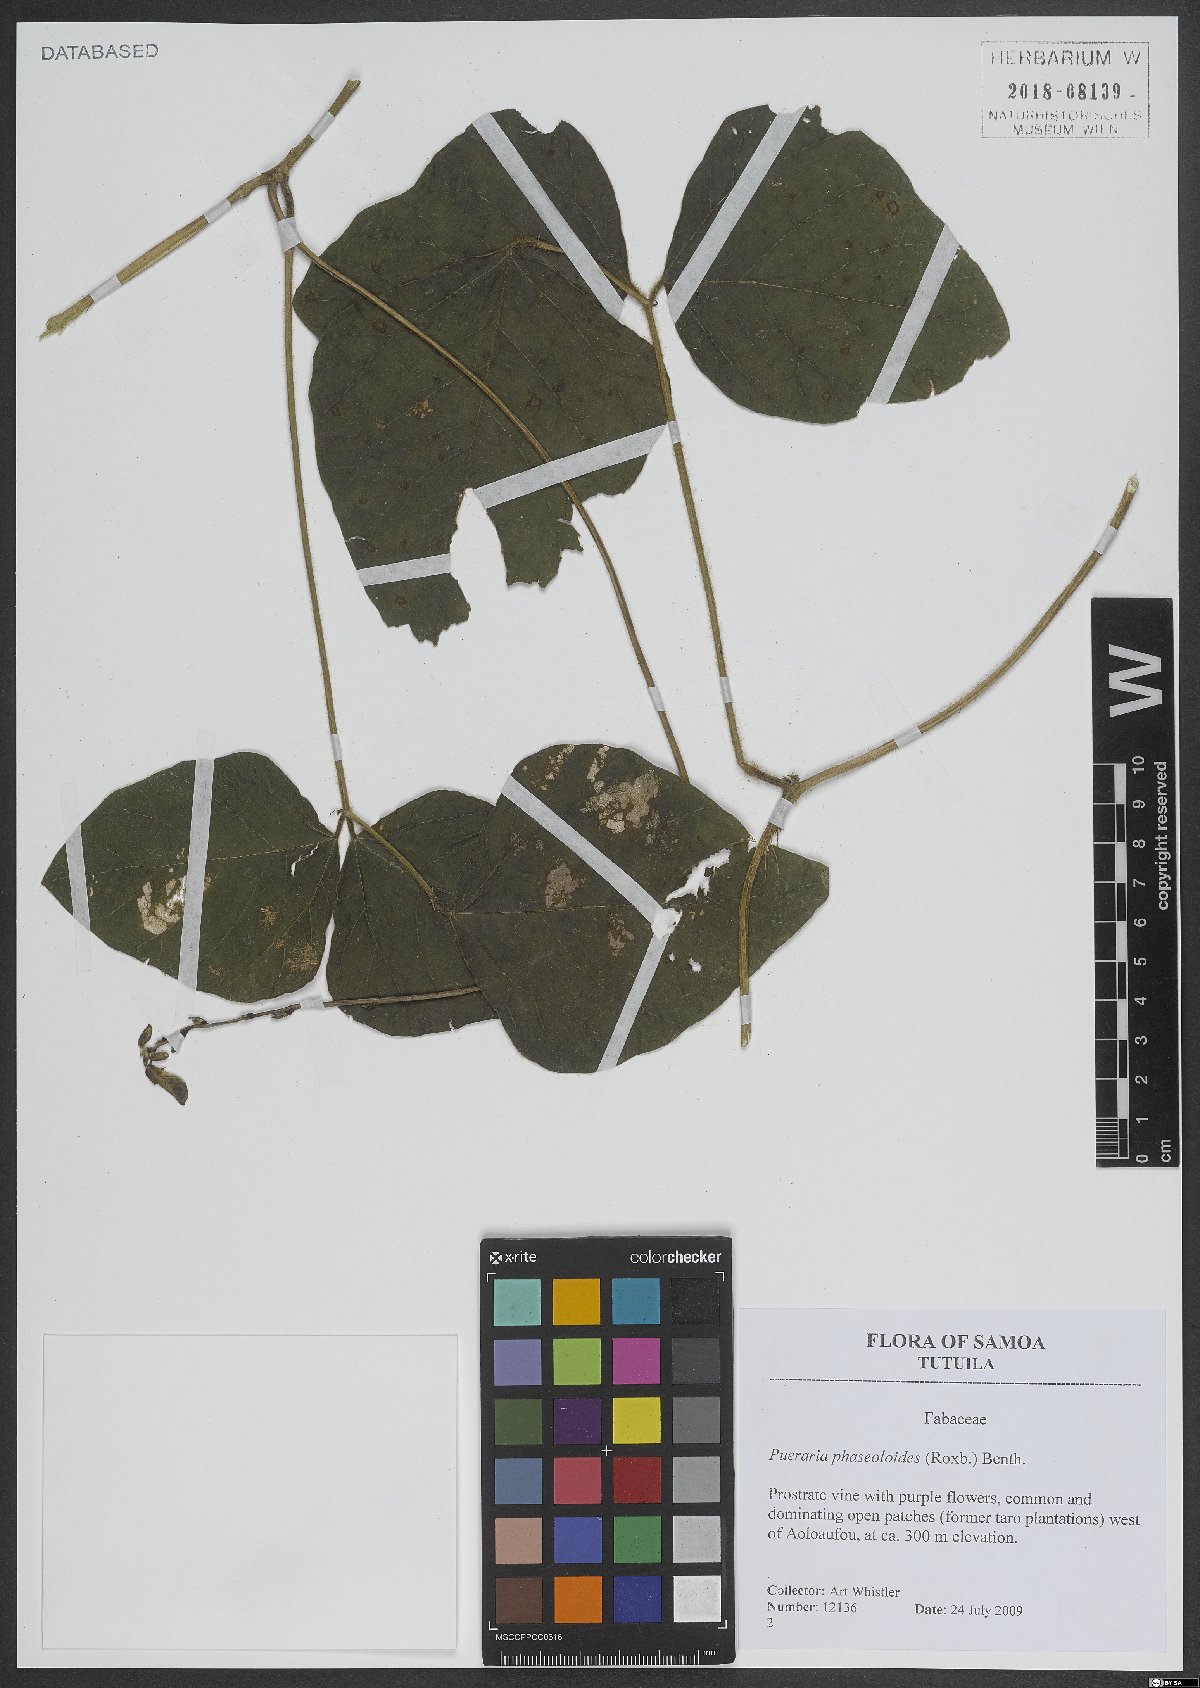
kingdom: Plantae
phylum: Tracheophyta
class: Magnoliopsida
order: Fabales
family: Fabaceae
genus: Neustanthus
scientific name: Neustanthus phaseoloides
